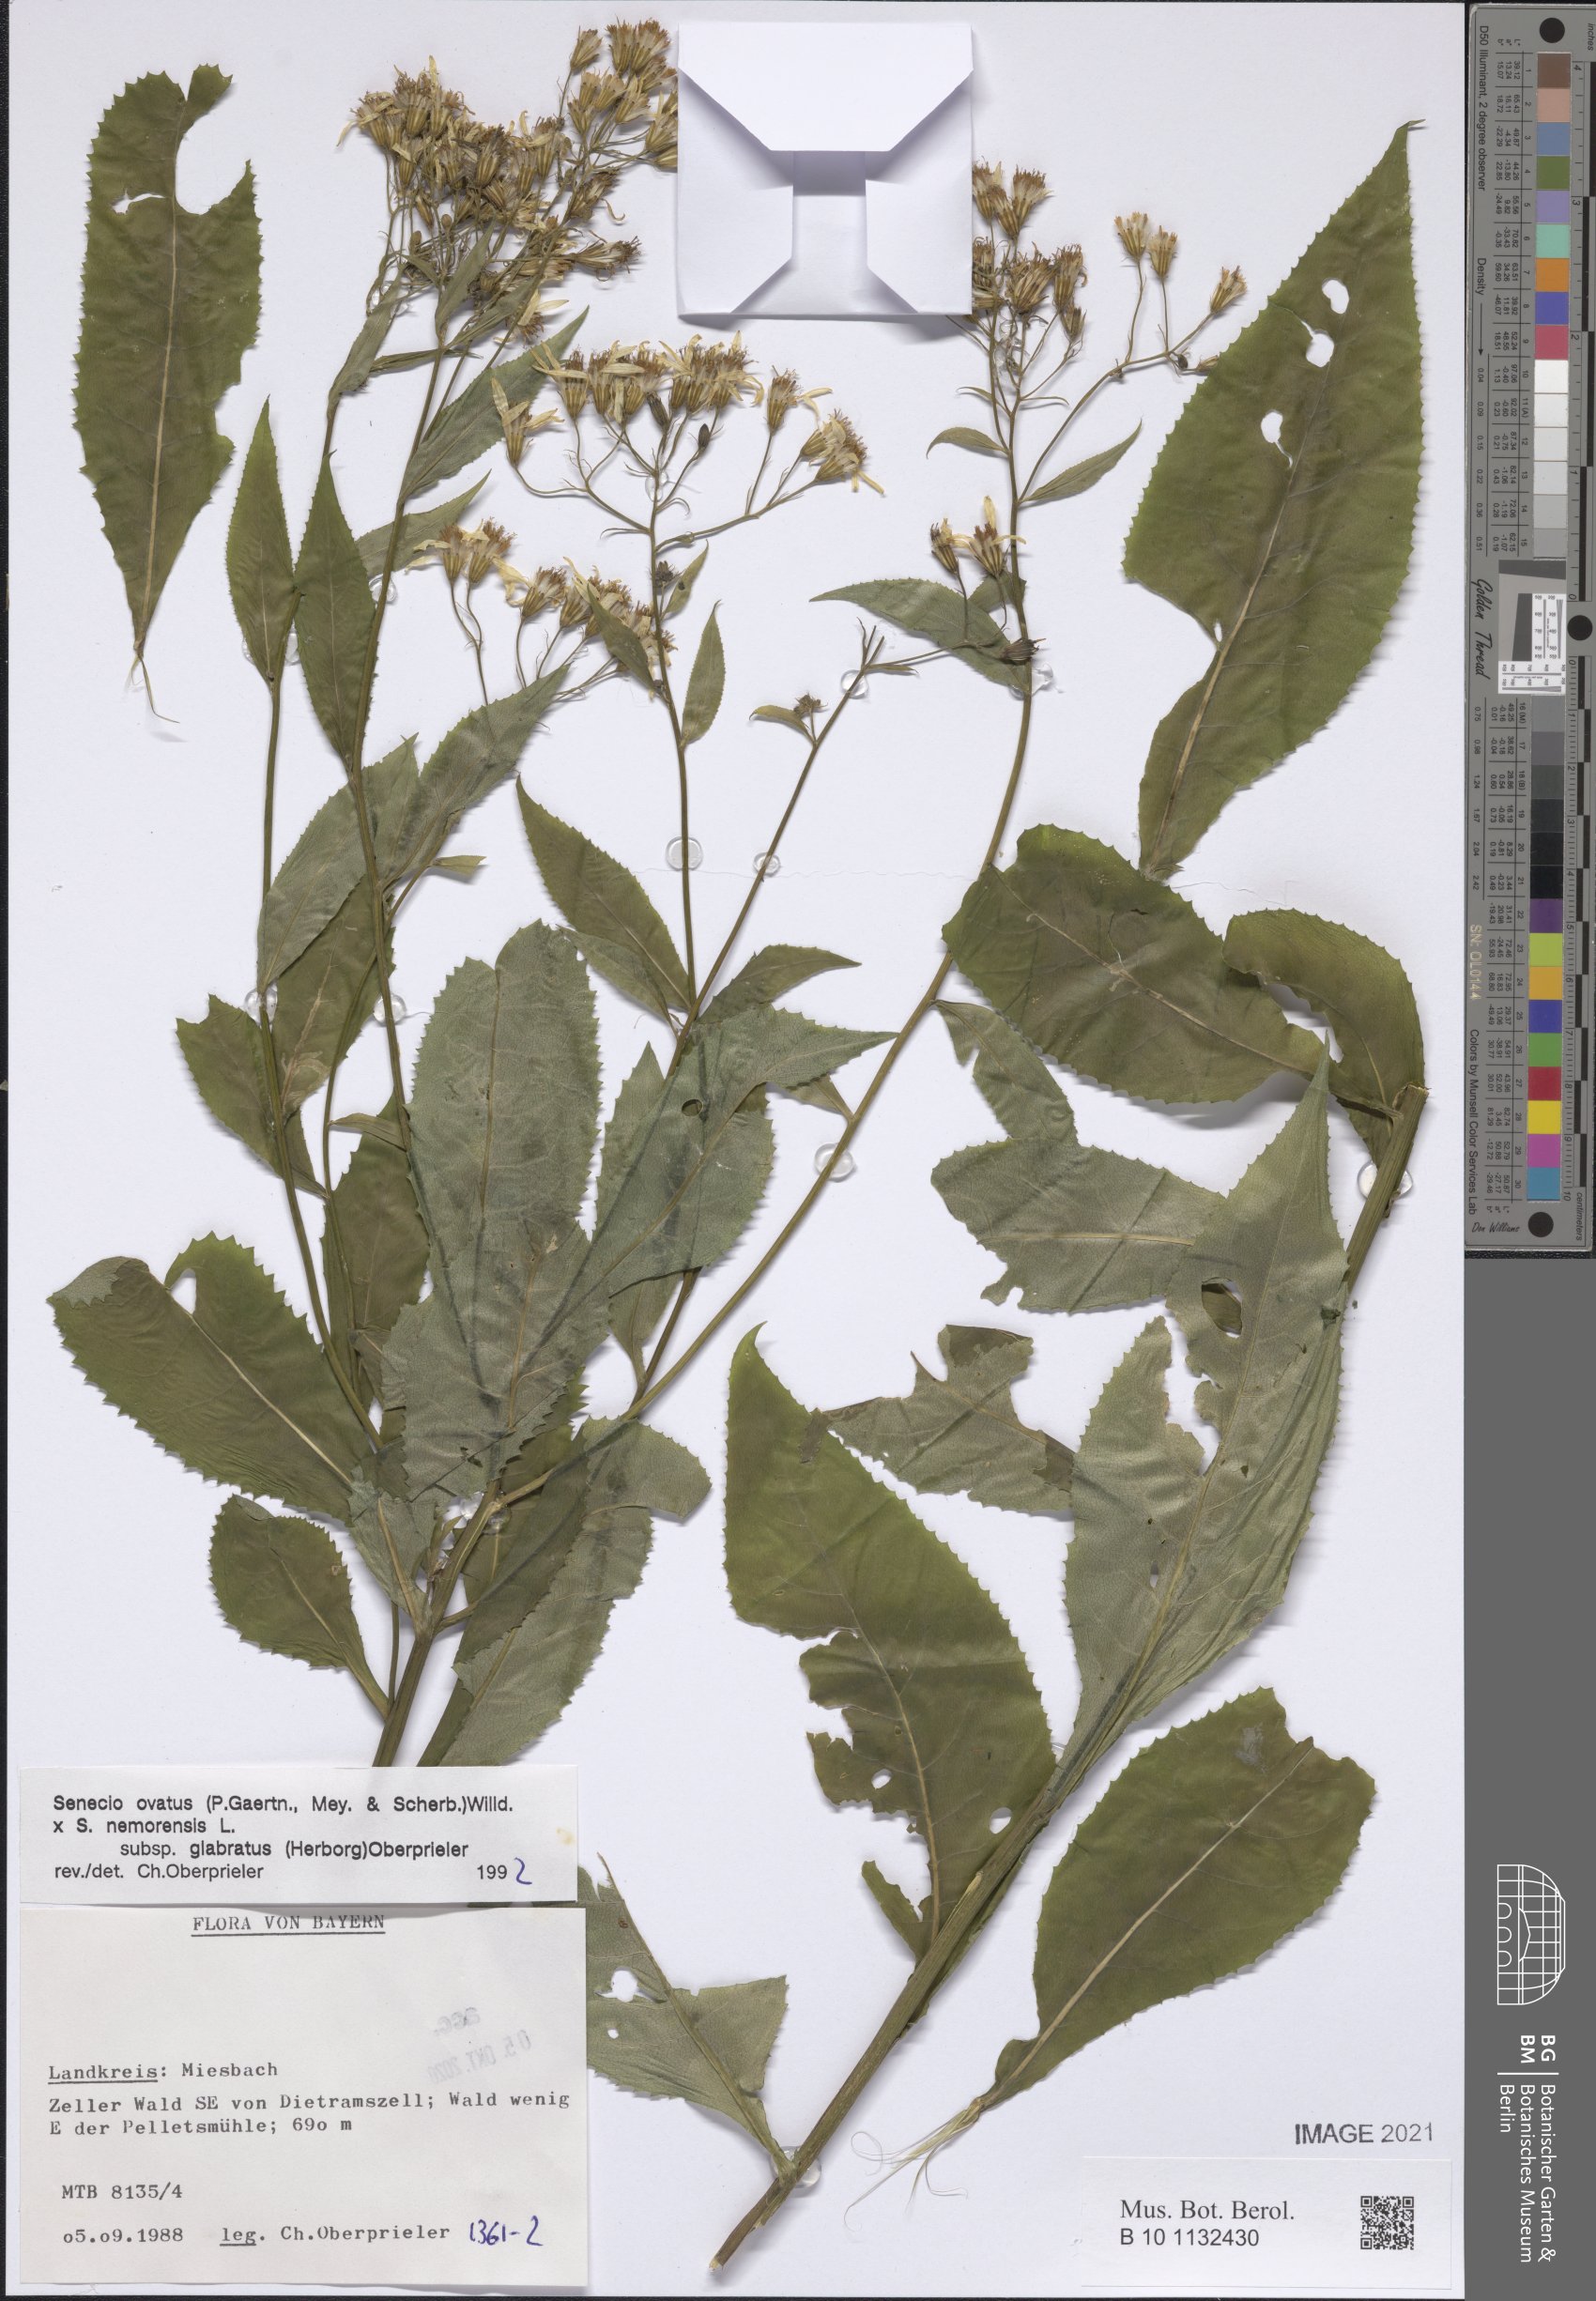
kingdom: Plantae
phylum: Tracheophyta
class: Magnoliopsida
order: Asterales
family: Asteraceae
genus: Senecio
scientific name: Senecio ovatus
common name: Wood ragwort
